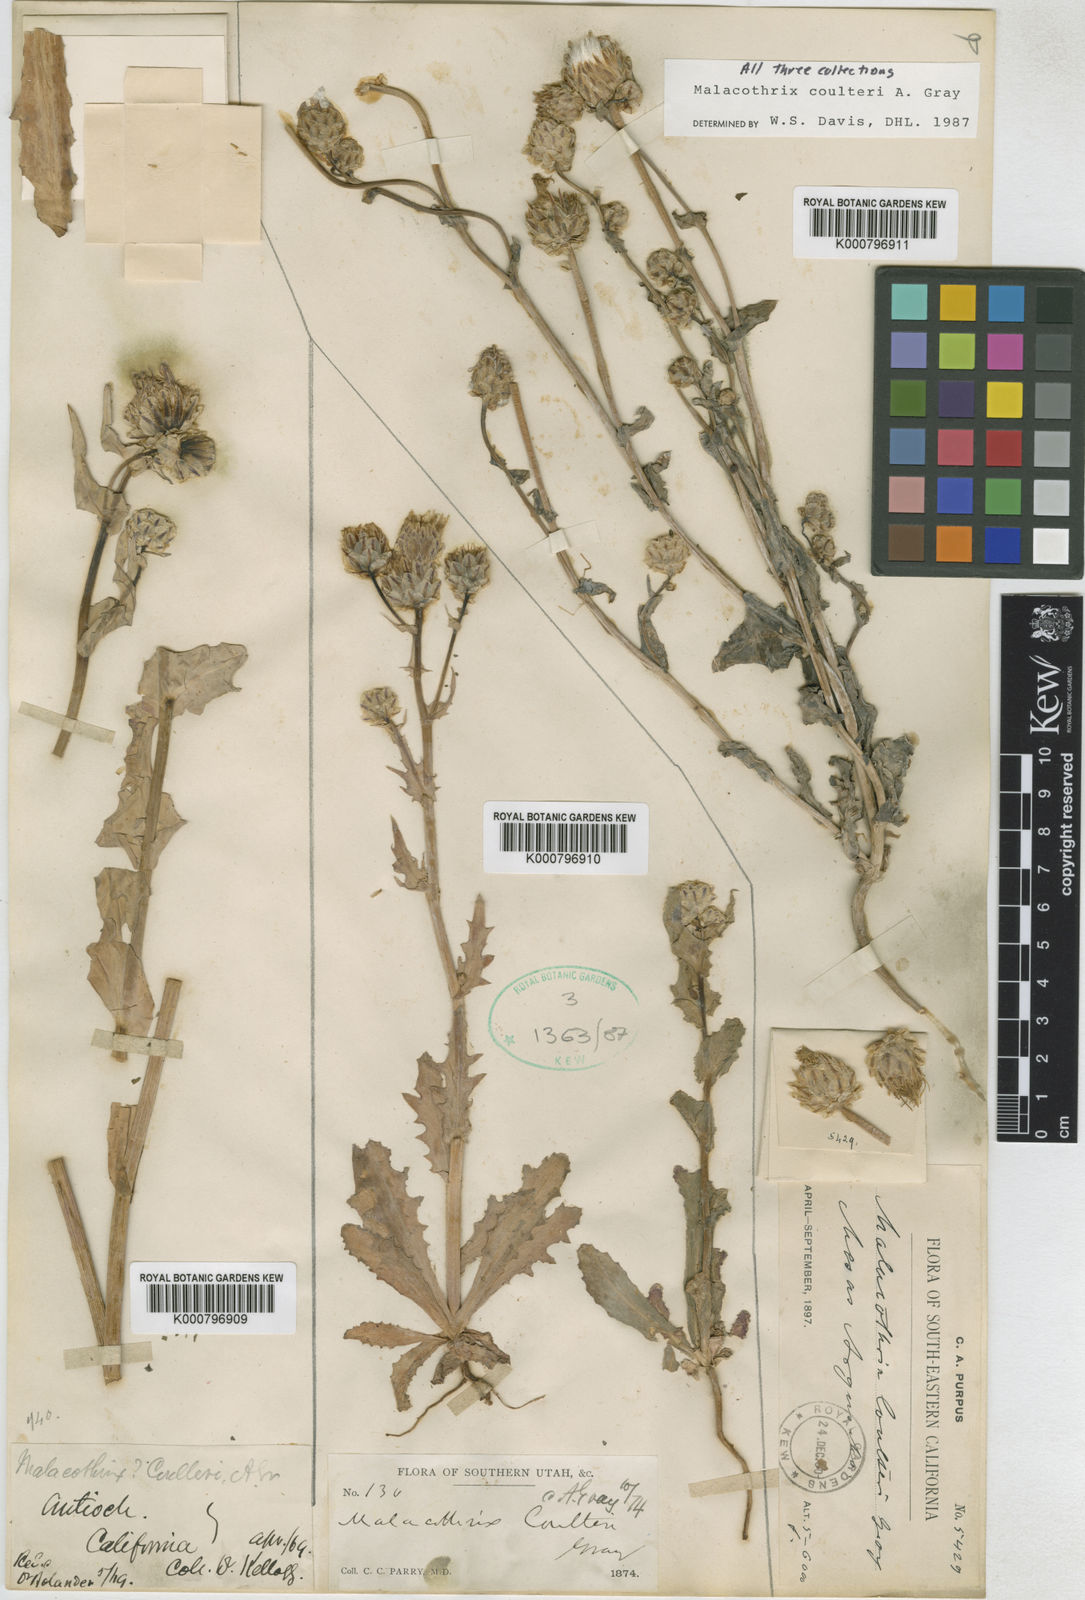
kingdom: Plantae
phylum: Tracheophyta
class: Magnoliopsida
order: Asterales
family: Asteraceae
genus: Malacothrix
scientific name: Malacothrix coulteri
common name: Snake's-head
